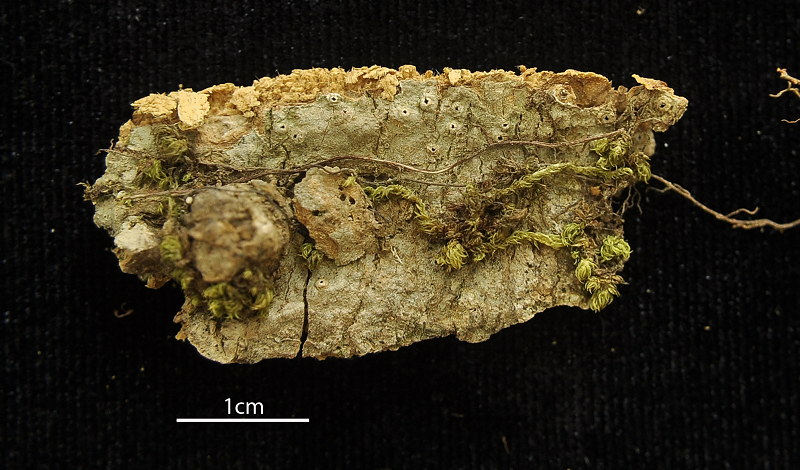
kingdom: Fungi
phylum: Ascomycota
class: Lecanoromycetes
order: Ostropales
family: Graphidaceae
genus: Ocellularia
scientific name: Ocellularia neopertusariiformis
